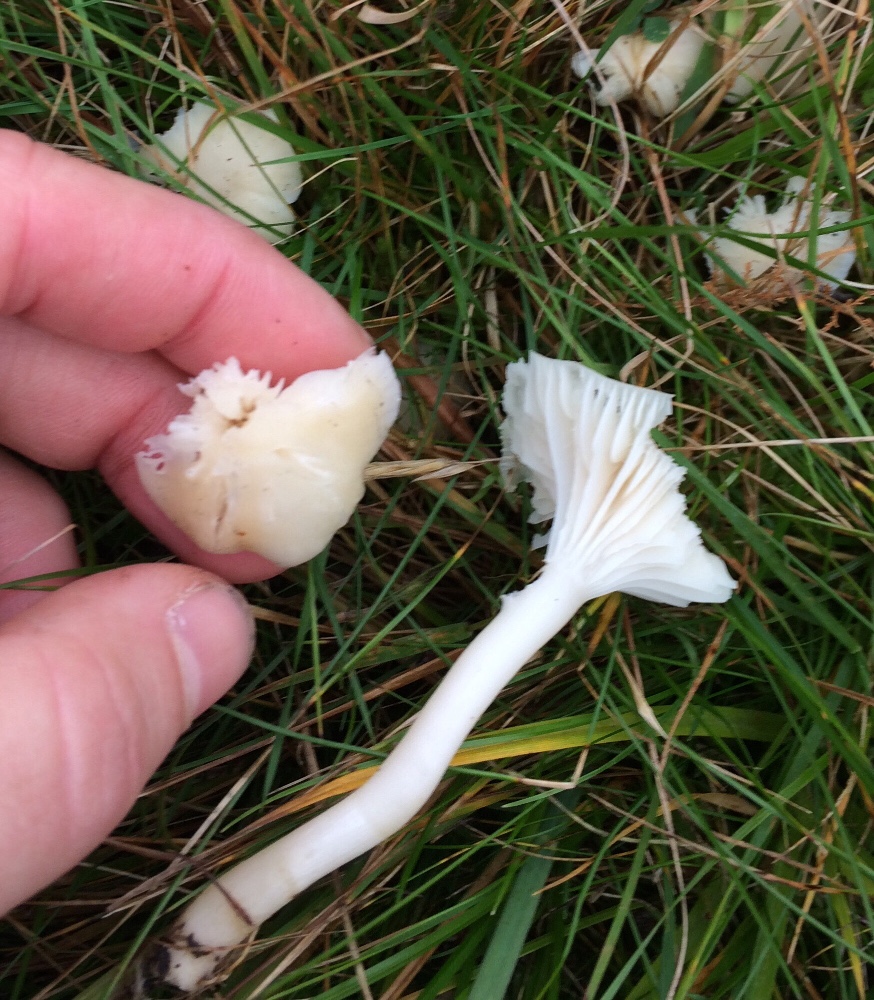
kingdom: Fungi
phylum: Basidiomycota
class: Agaricomycetes
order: Agaricales
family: Hygrophoraceae
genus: Cuphophyllus
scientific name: Cuphophyllus russocoriaceus
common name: ruslæder-vokshat
